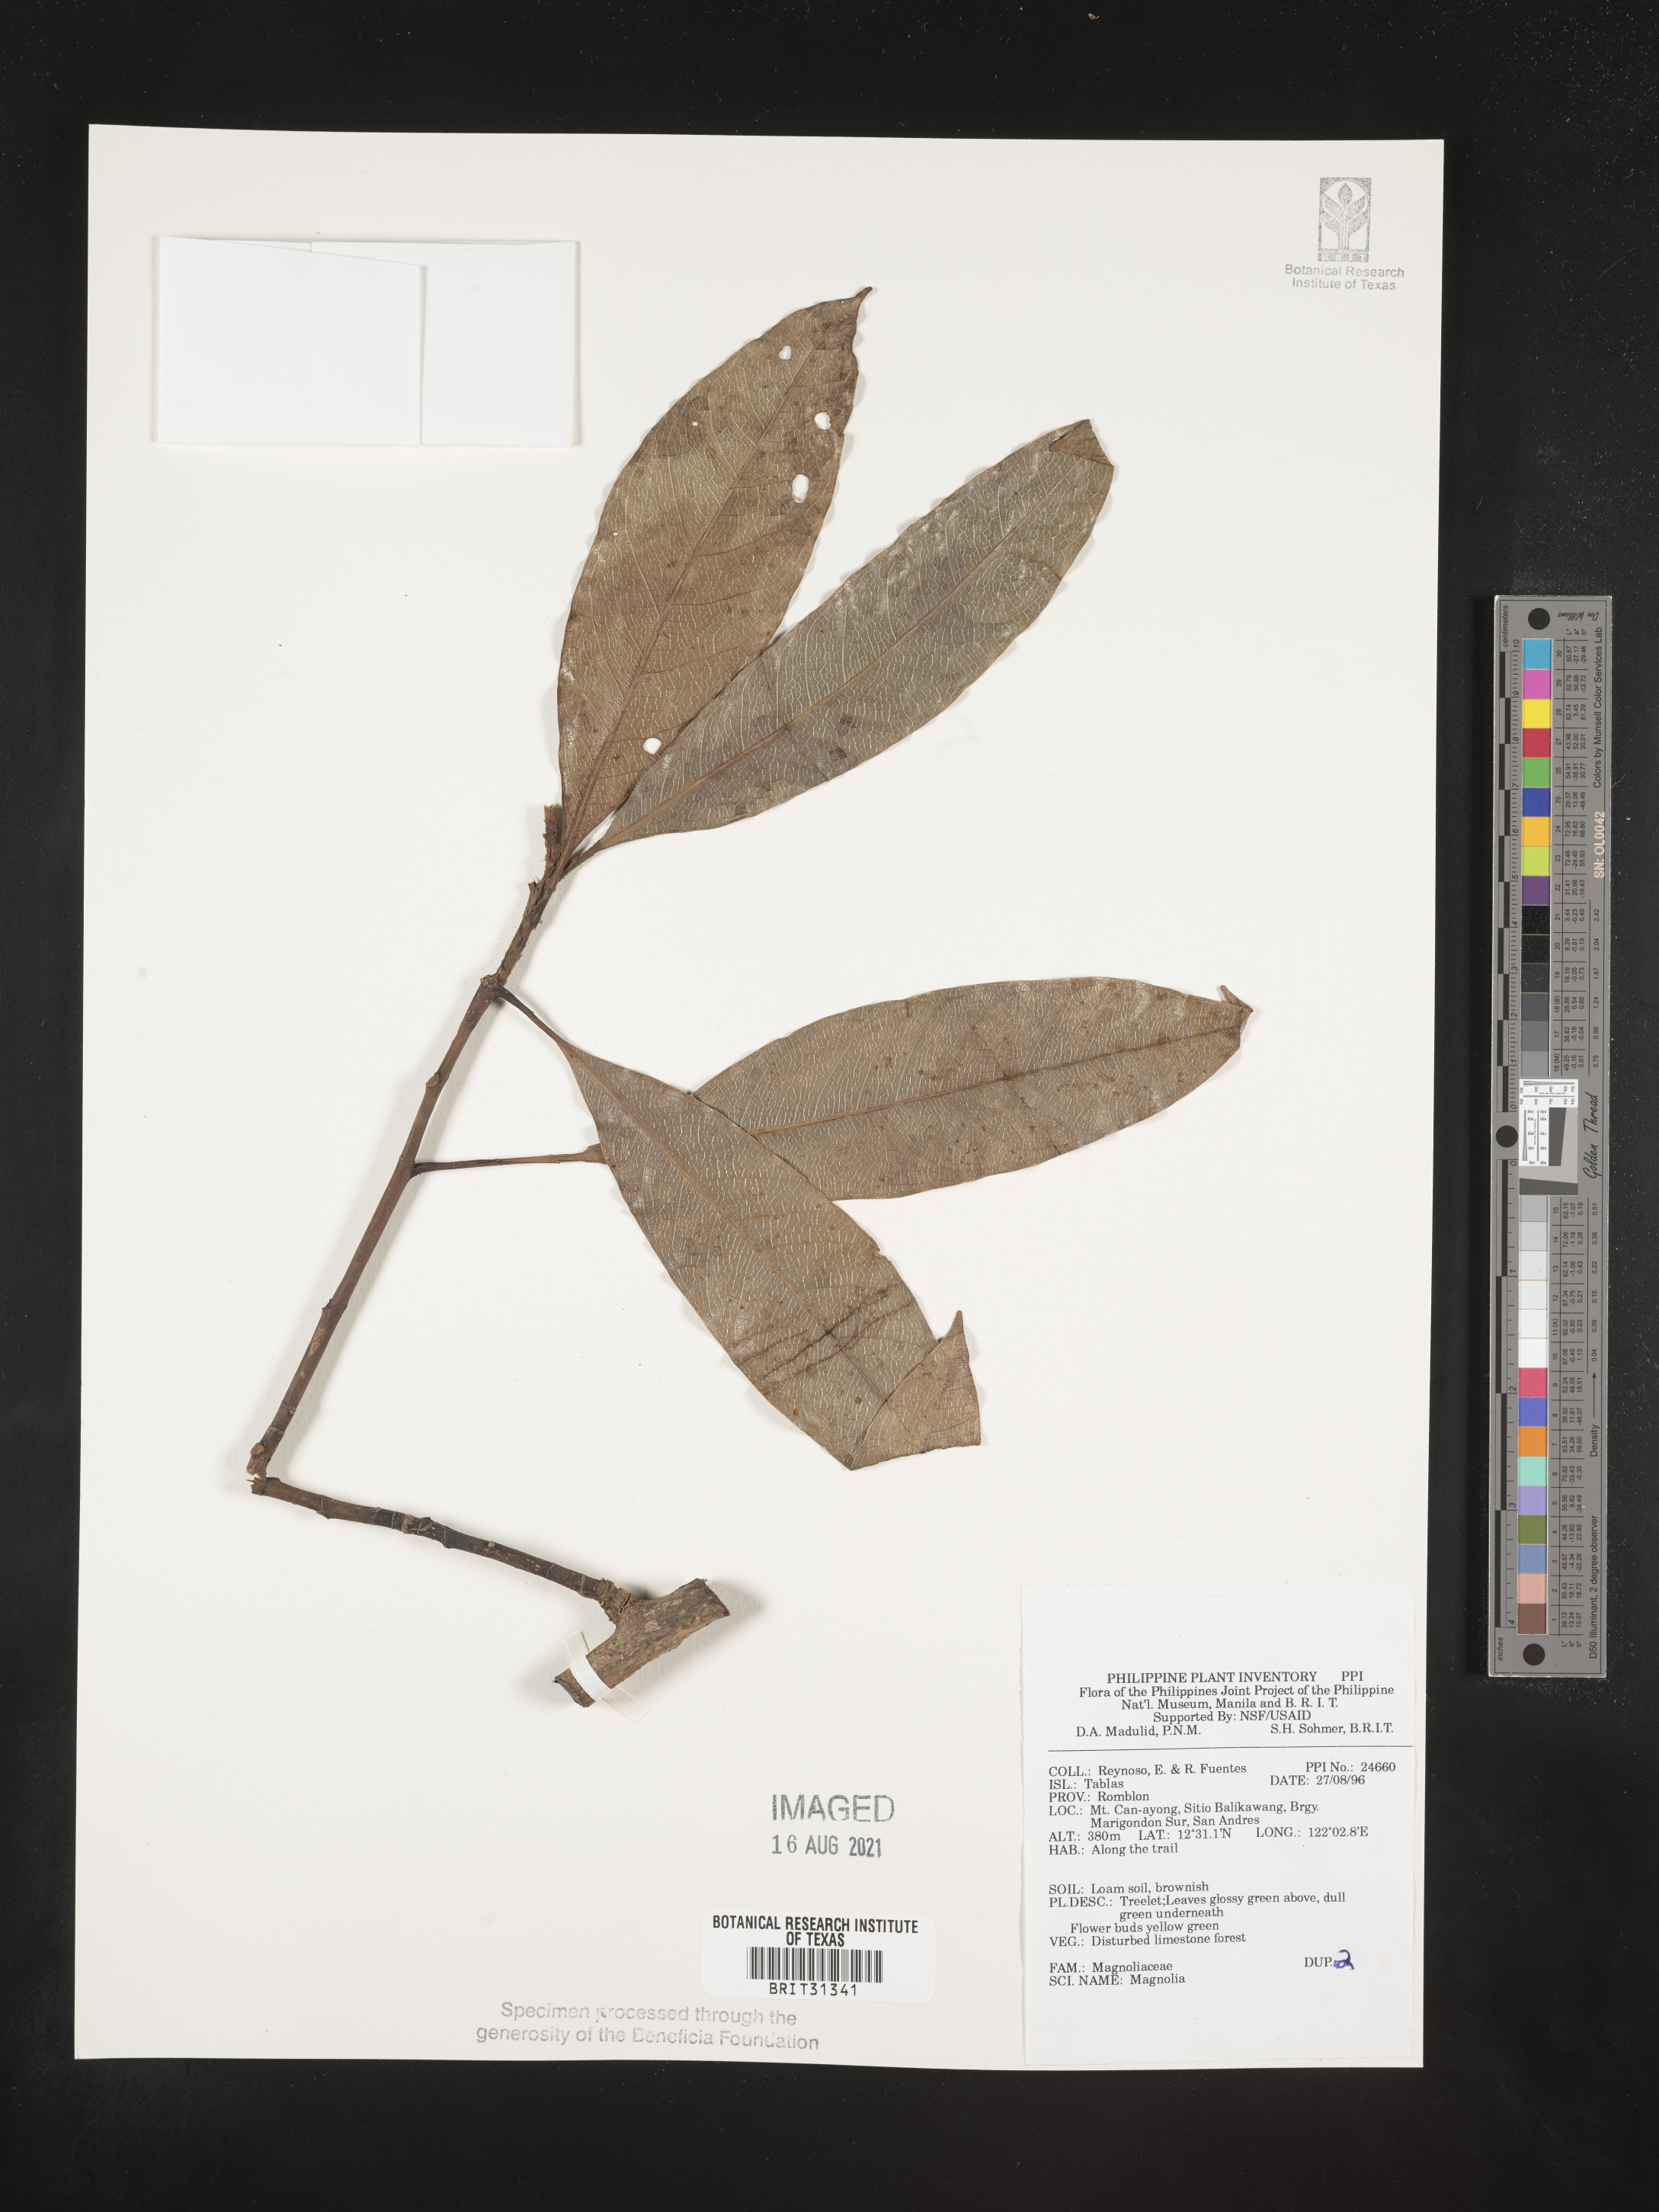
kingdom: Plantae
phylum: Tracheophyta
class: Magnoliopsida
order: Magnoliales
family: Magnoliaceae
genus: Magnolia
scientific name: Magnolia
